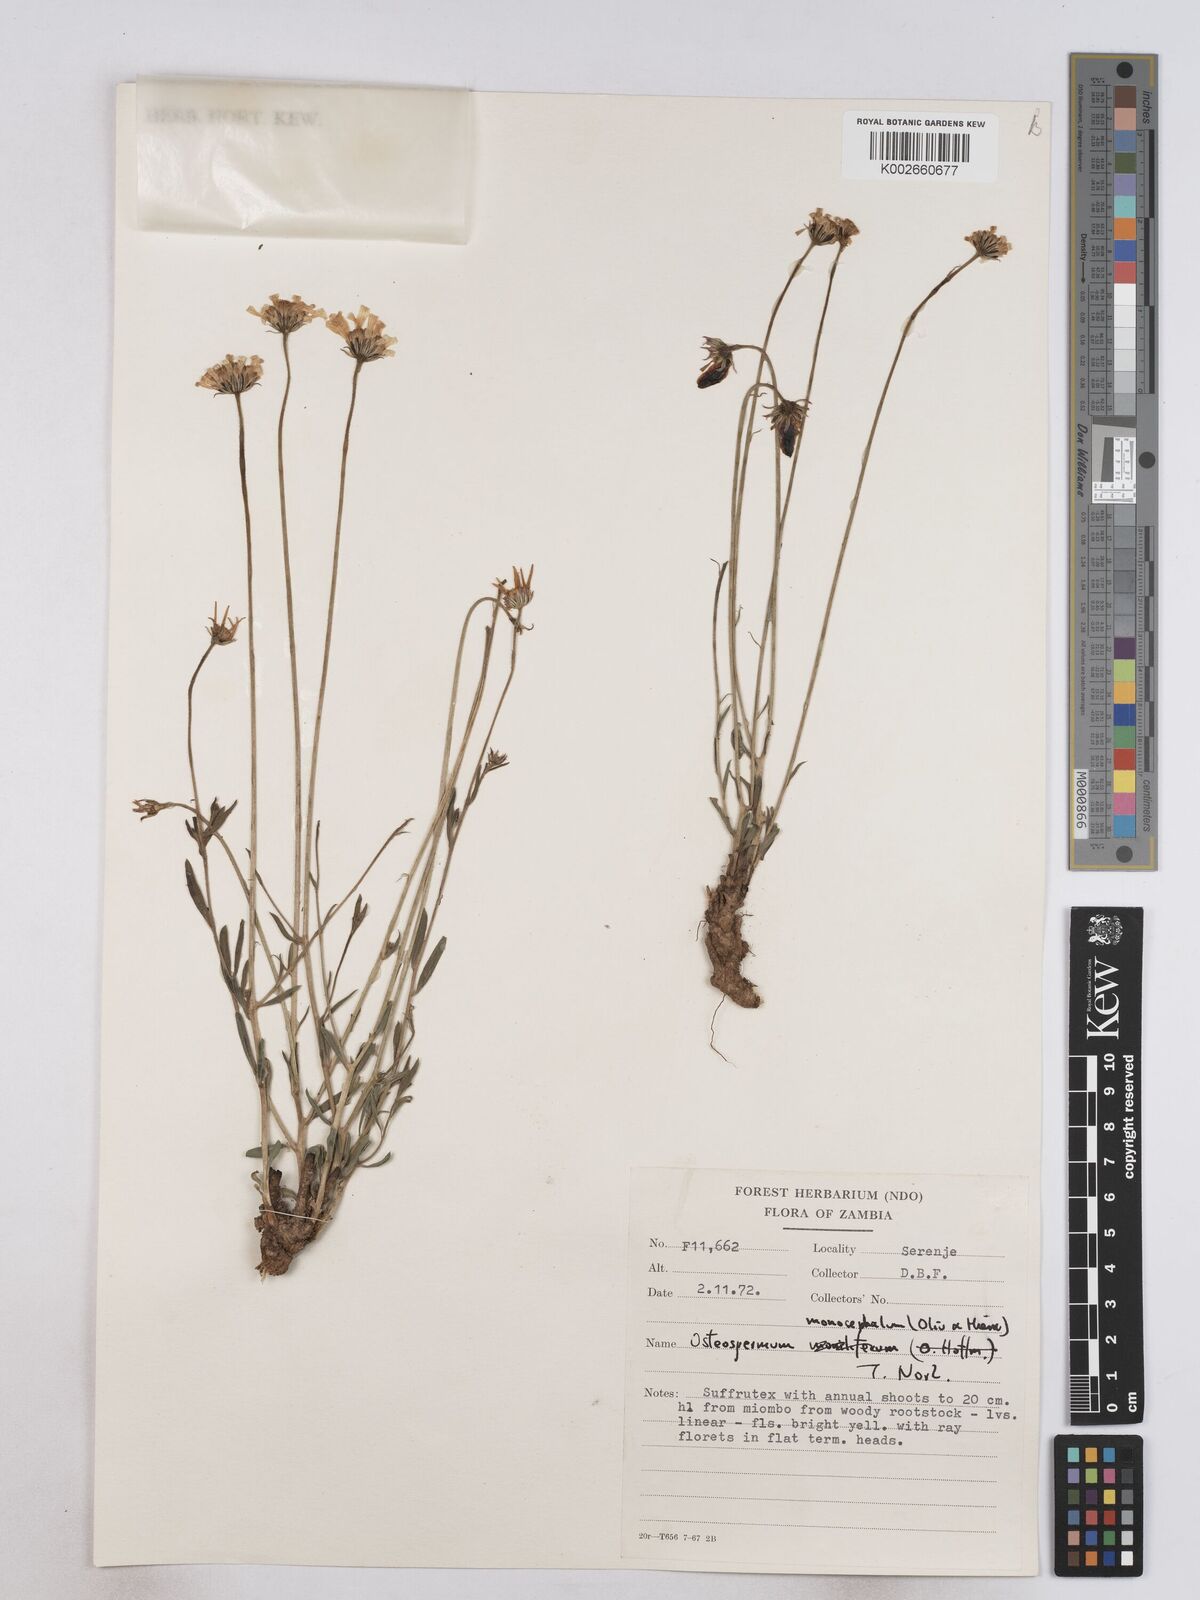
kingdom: Plantae
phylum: Tracheophyta
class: Magnoliopsida
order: Asterales
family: Asteraceae
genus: Osteospermum
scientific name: Osteospermum monocephalum
